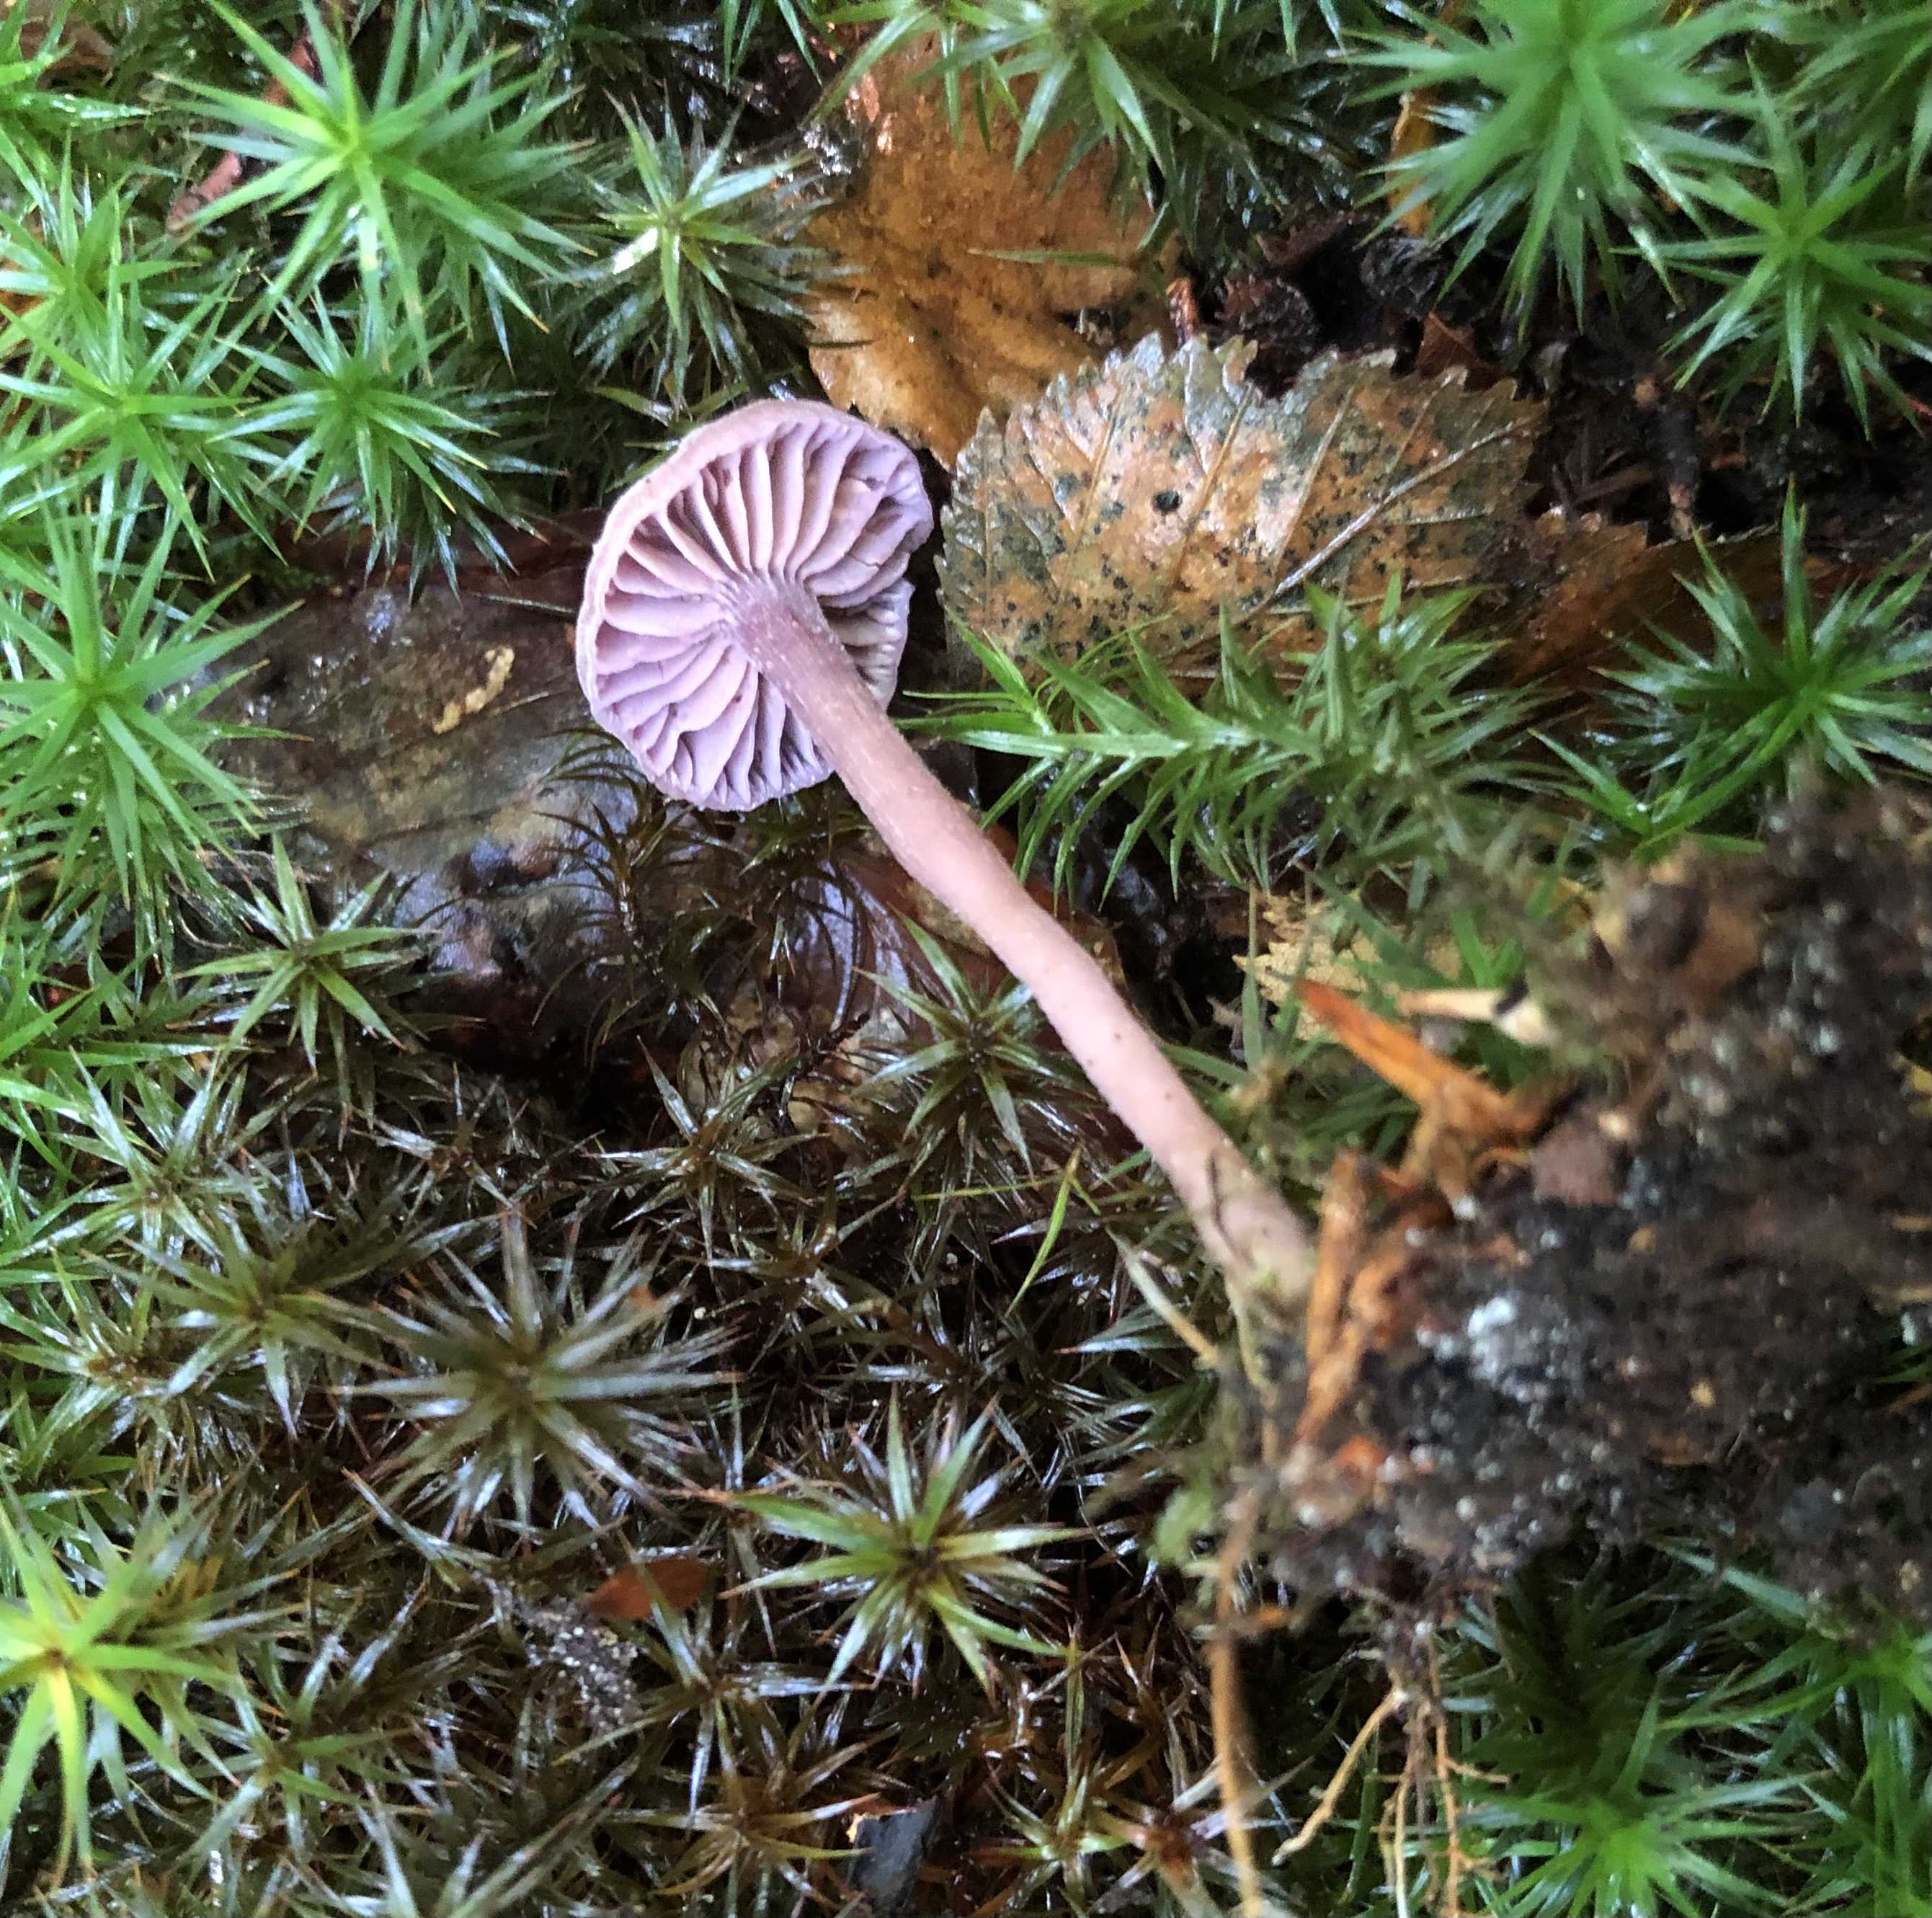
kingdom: Fungi
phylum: Basidiomycota
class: Agaricomycetes
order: Agaricales
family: Hydnangiaceae
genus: Laccaria
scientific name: Laccaria amethystina
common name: violet ametysthat
